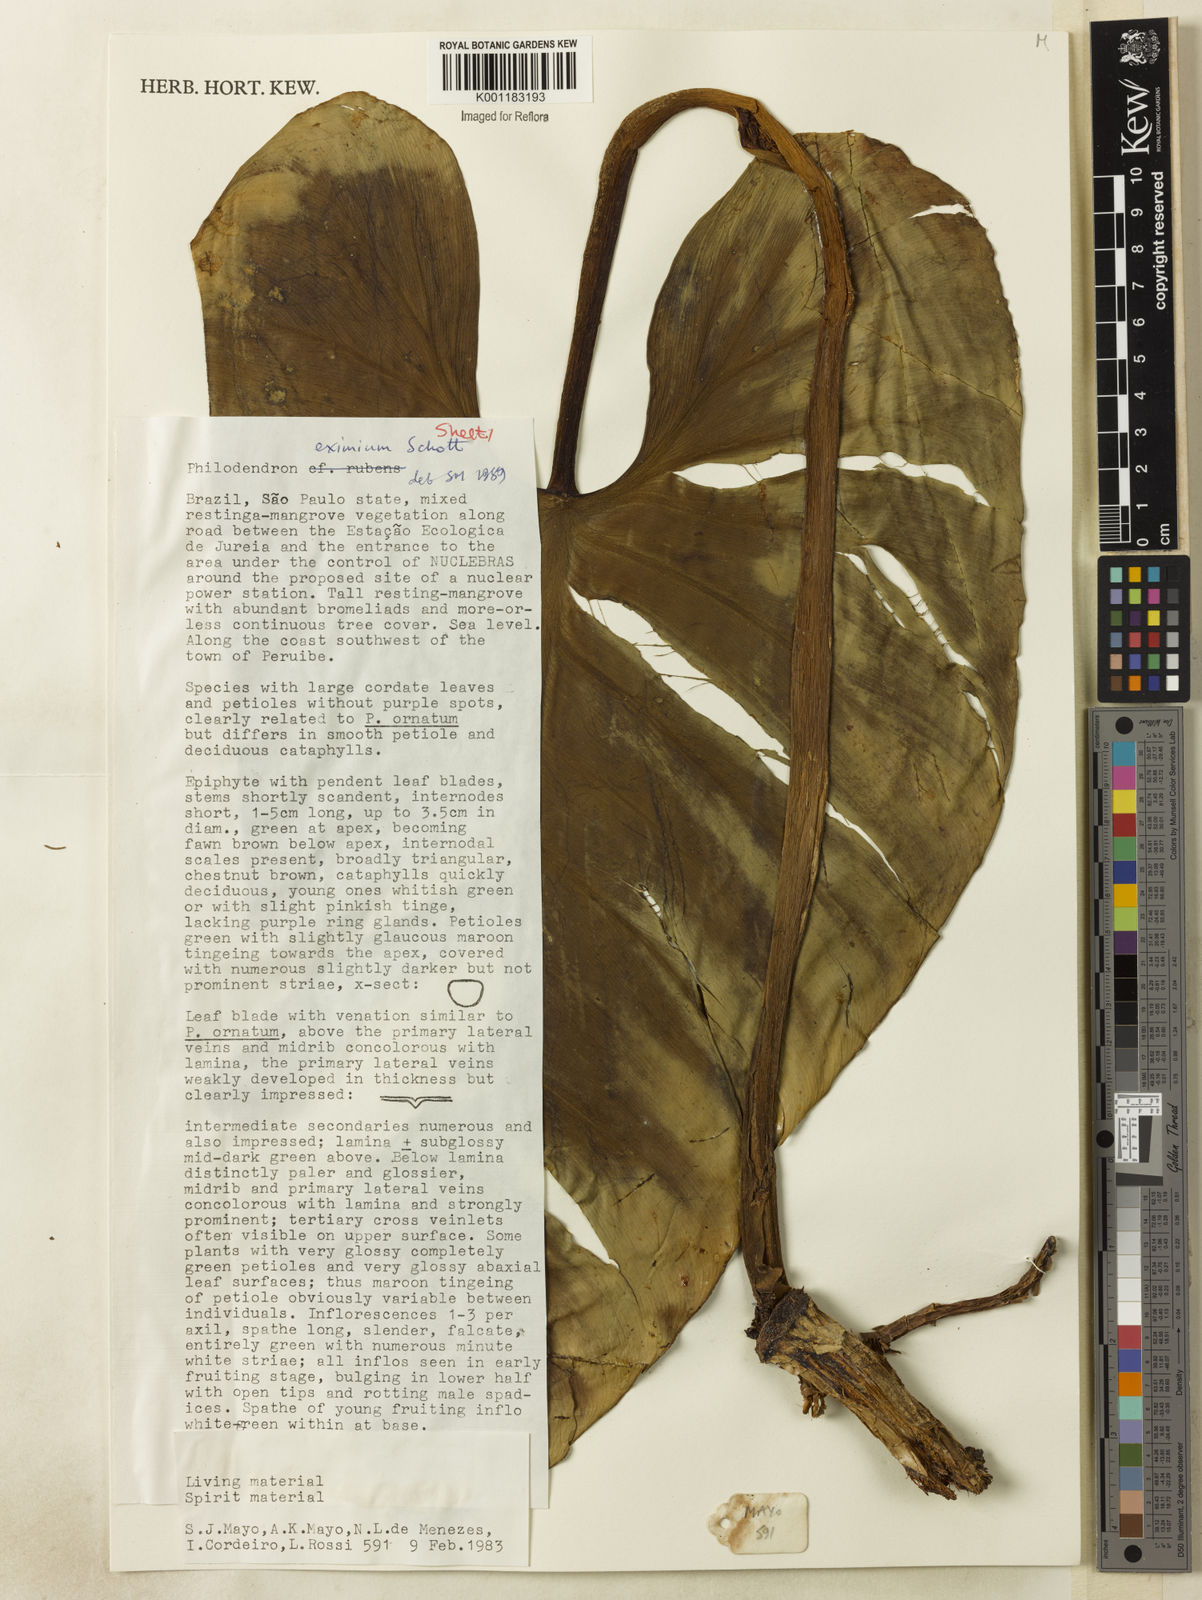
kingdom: Plantae
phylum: Tracheophyta
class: Liliopsida
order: Alismatales
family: Araceae
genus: Philodendron
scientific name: Philodendron eximium
